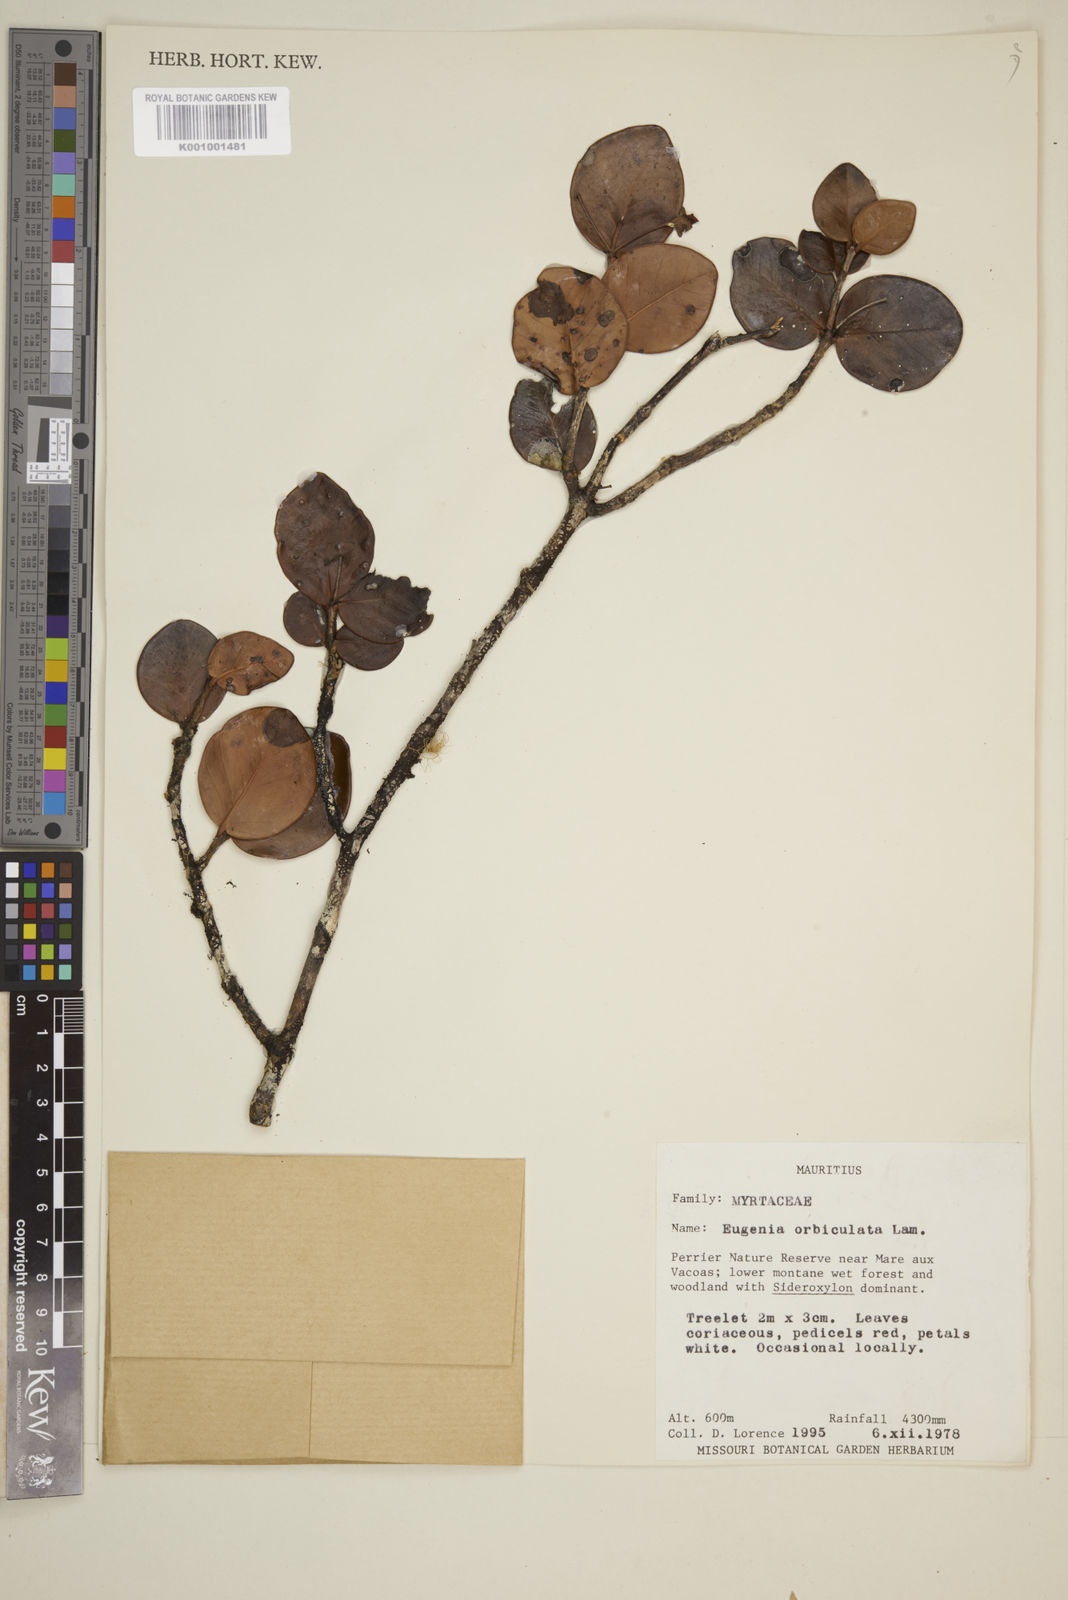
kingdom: Plantae
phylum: Tracheophyta
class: Magnoliopsida
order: Myrtales
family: Myrtaceae
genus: Eugenia
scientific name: Eugenia orbiculata
